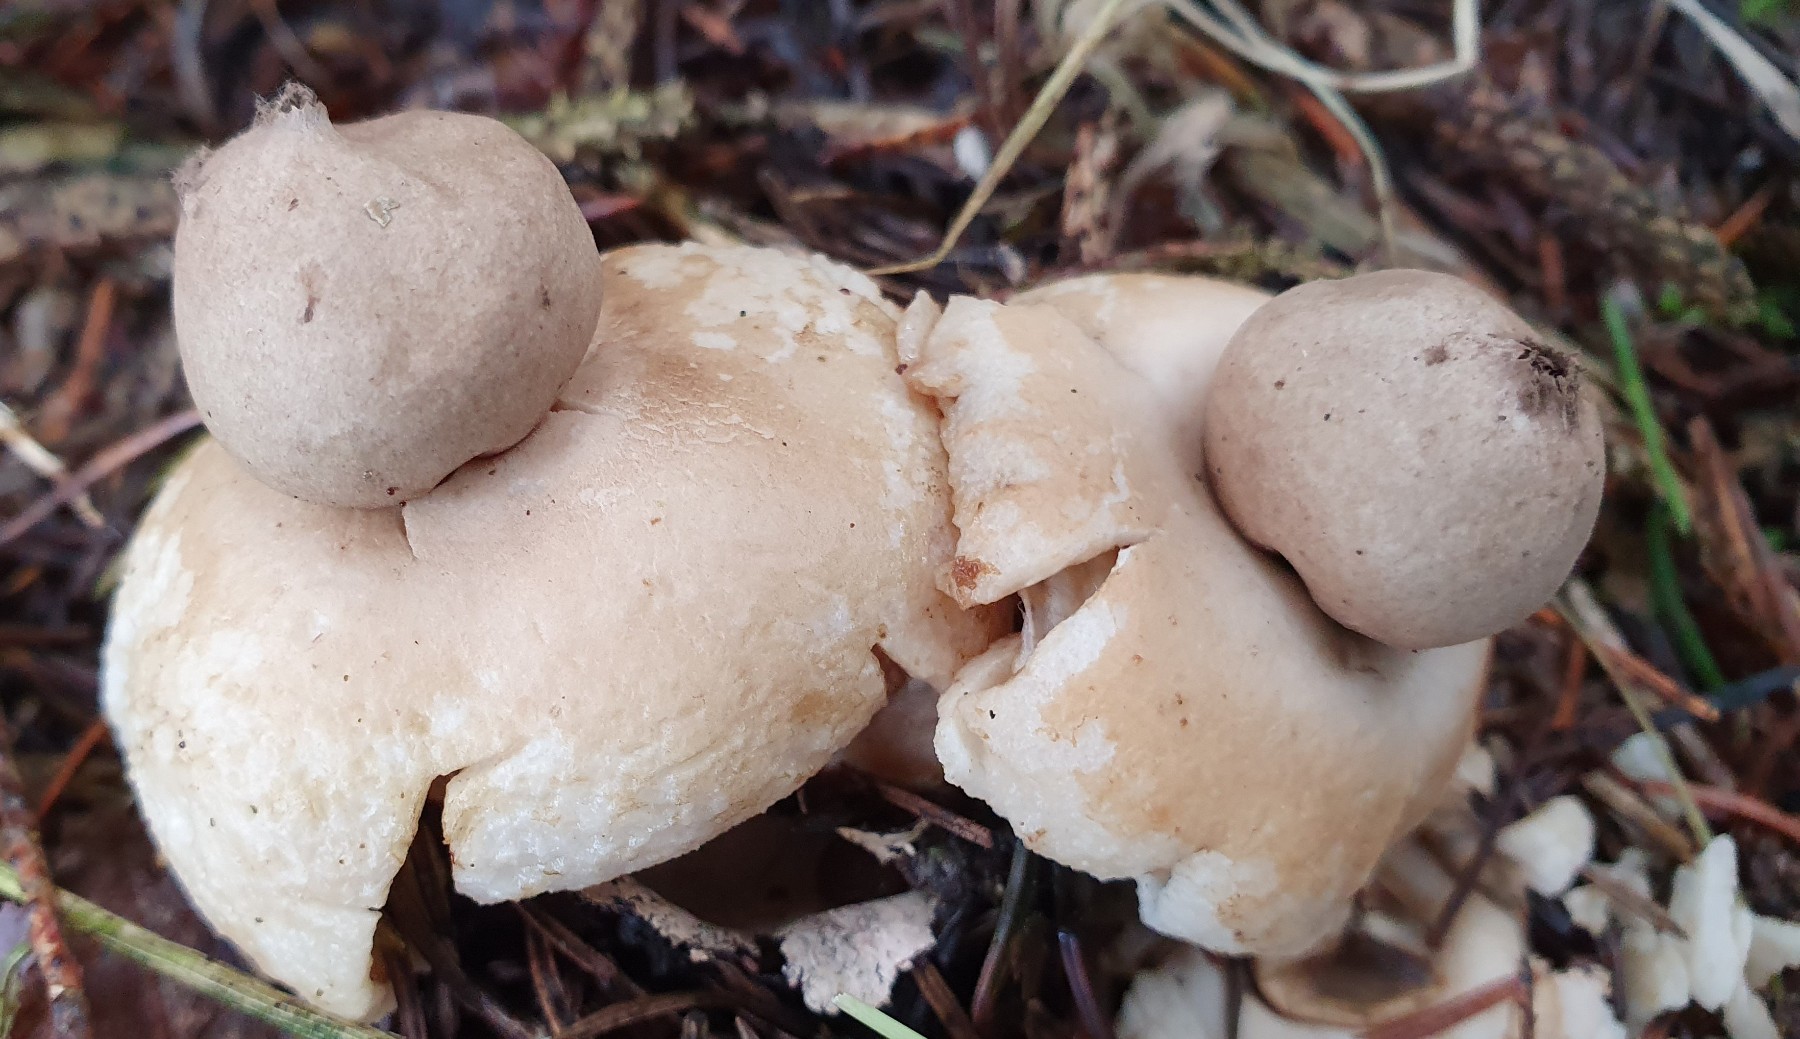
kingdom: Fungi
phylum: Basidiomycota
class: Agaricomycetes
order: Geastrales
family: Geastraceae
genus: Geastrum
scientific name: Geastrum fimbriatum
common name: frynset stjernebold
